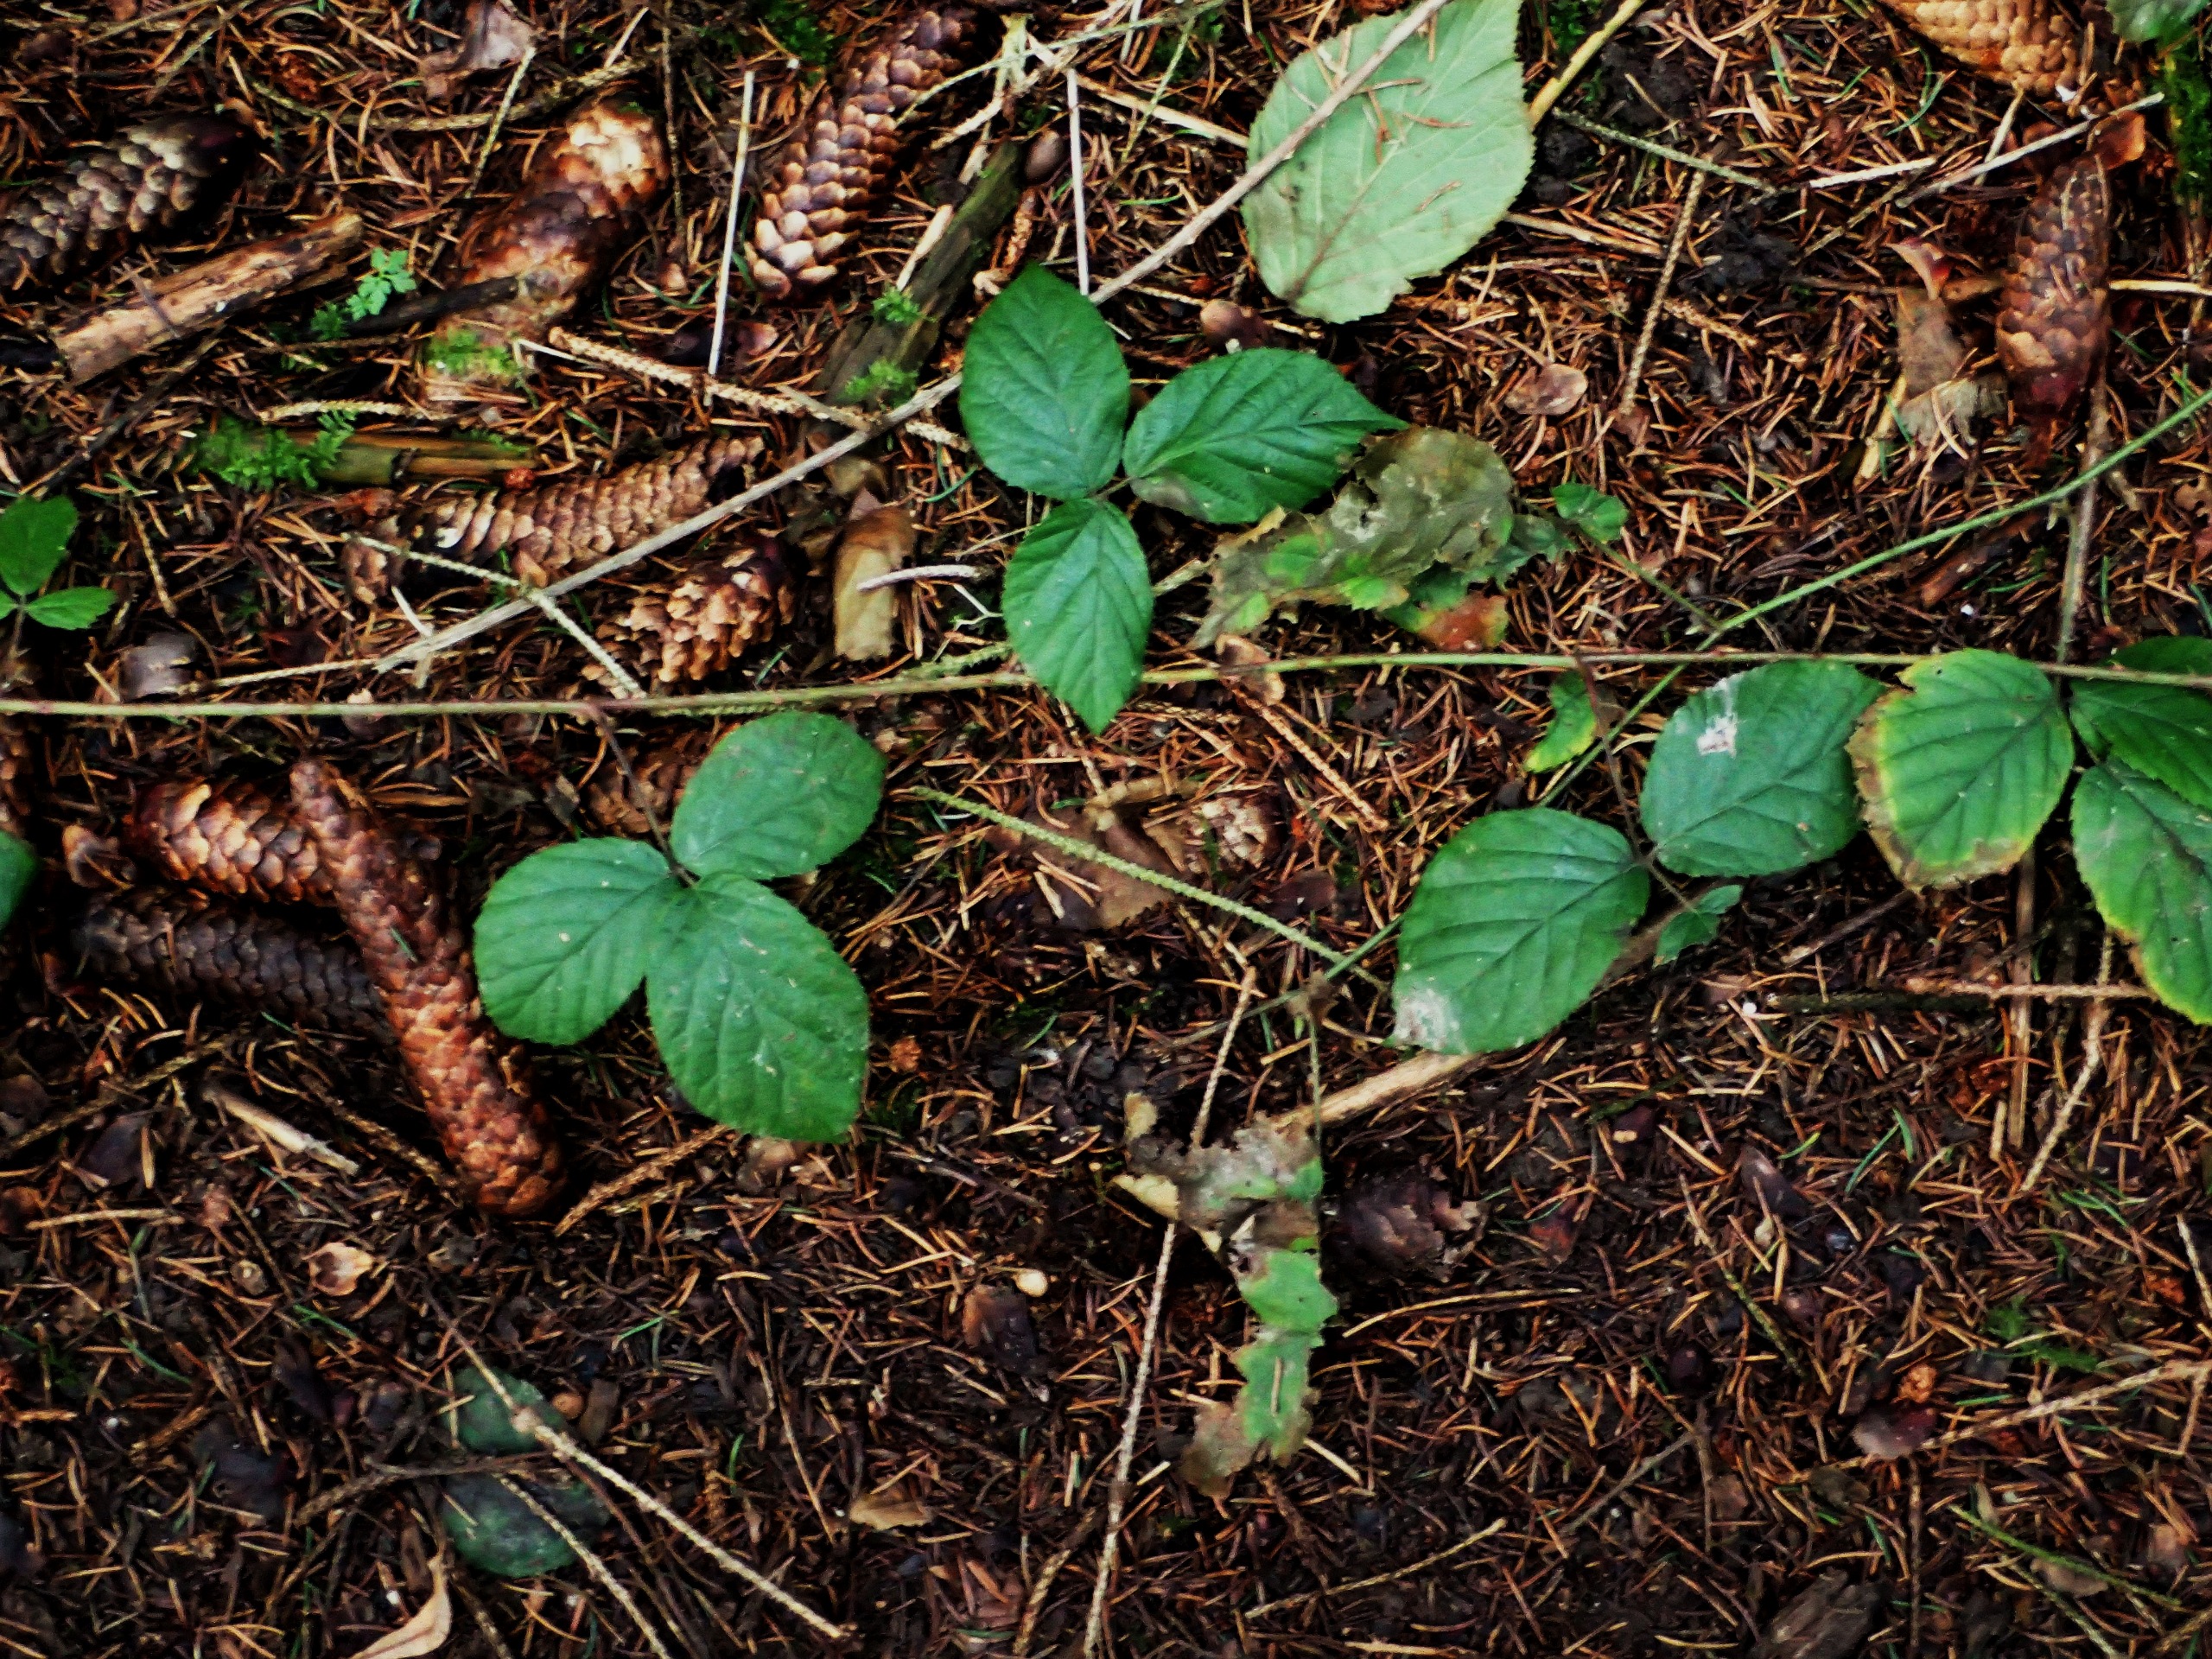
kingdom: Plantae
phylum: Tracheophyta
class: Magnoliopsida
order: Rosales
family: Rosaceae
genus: Rubus
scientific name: Rubus
